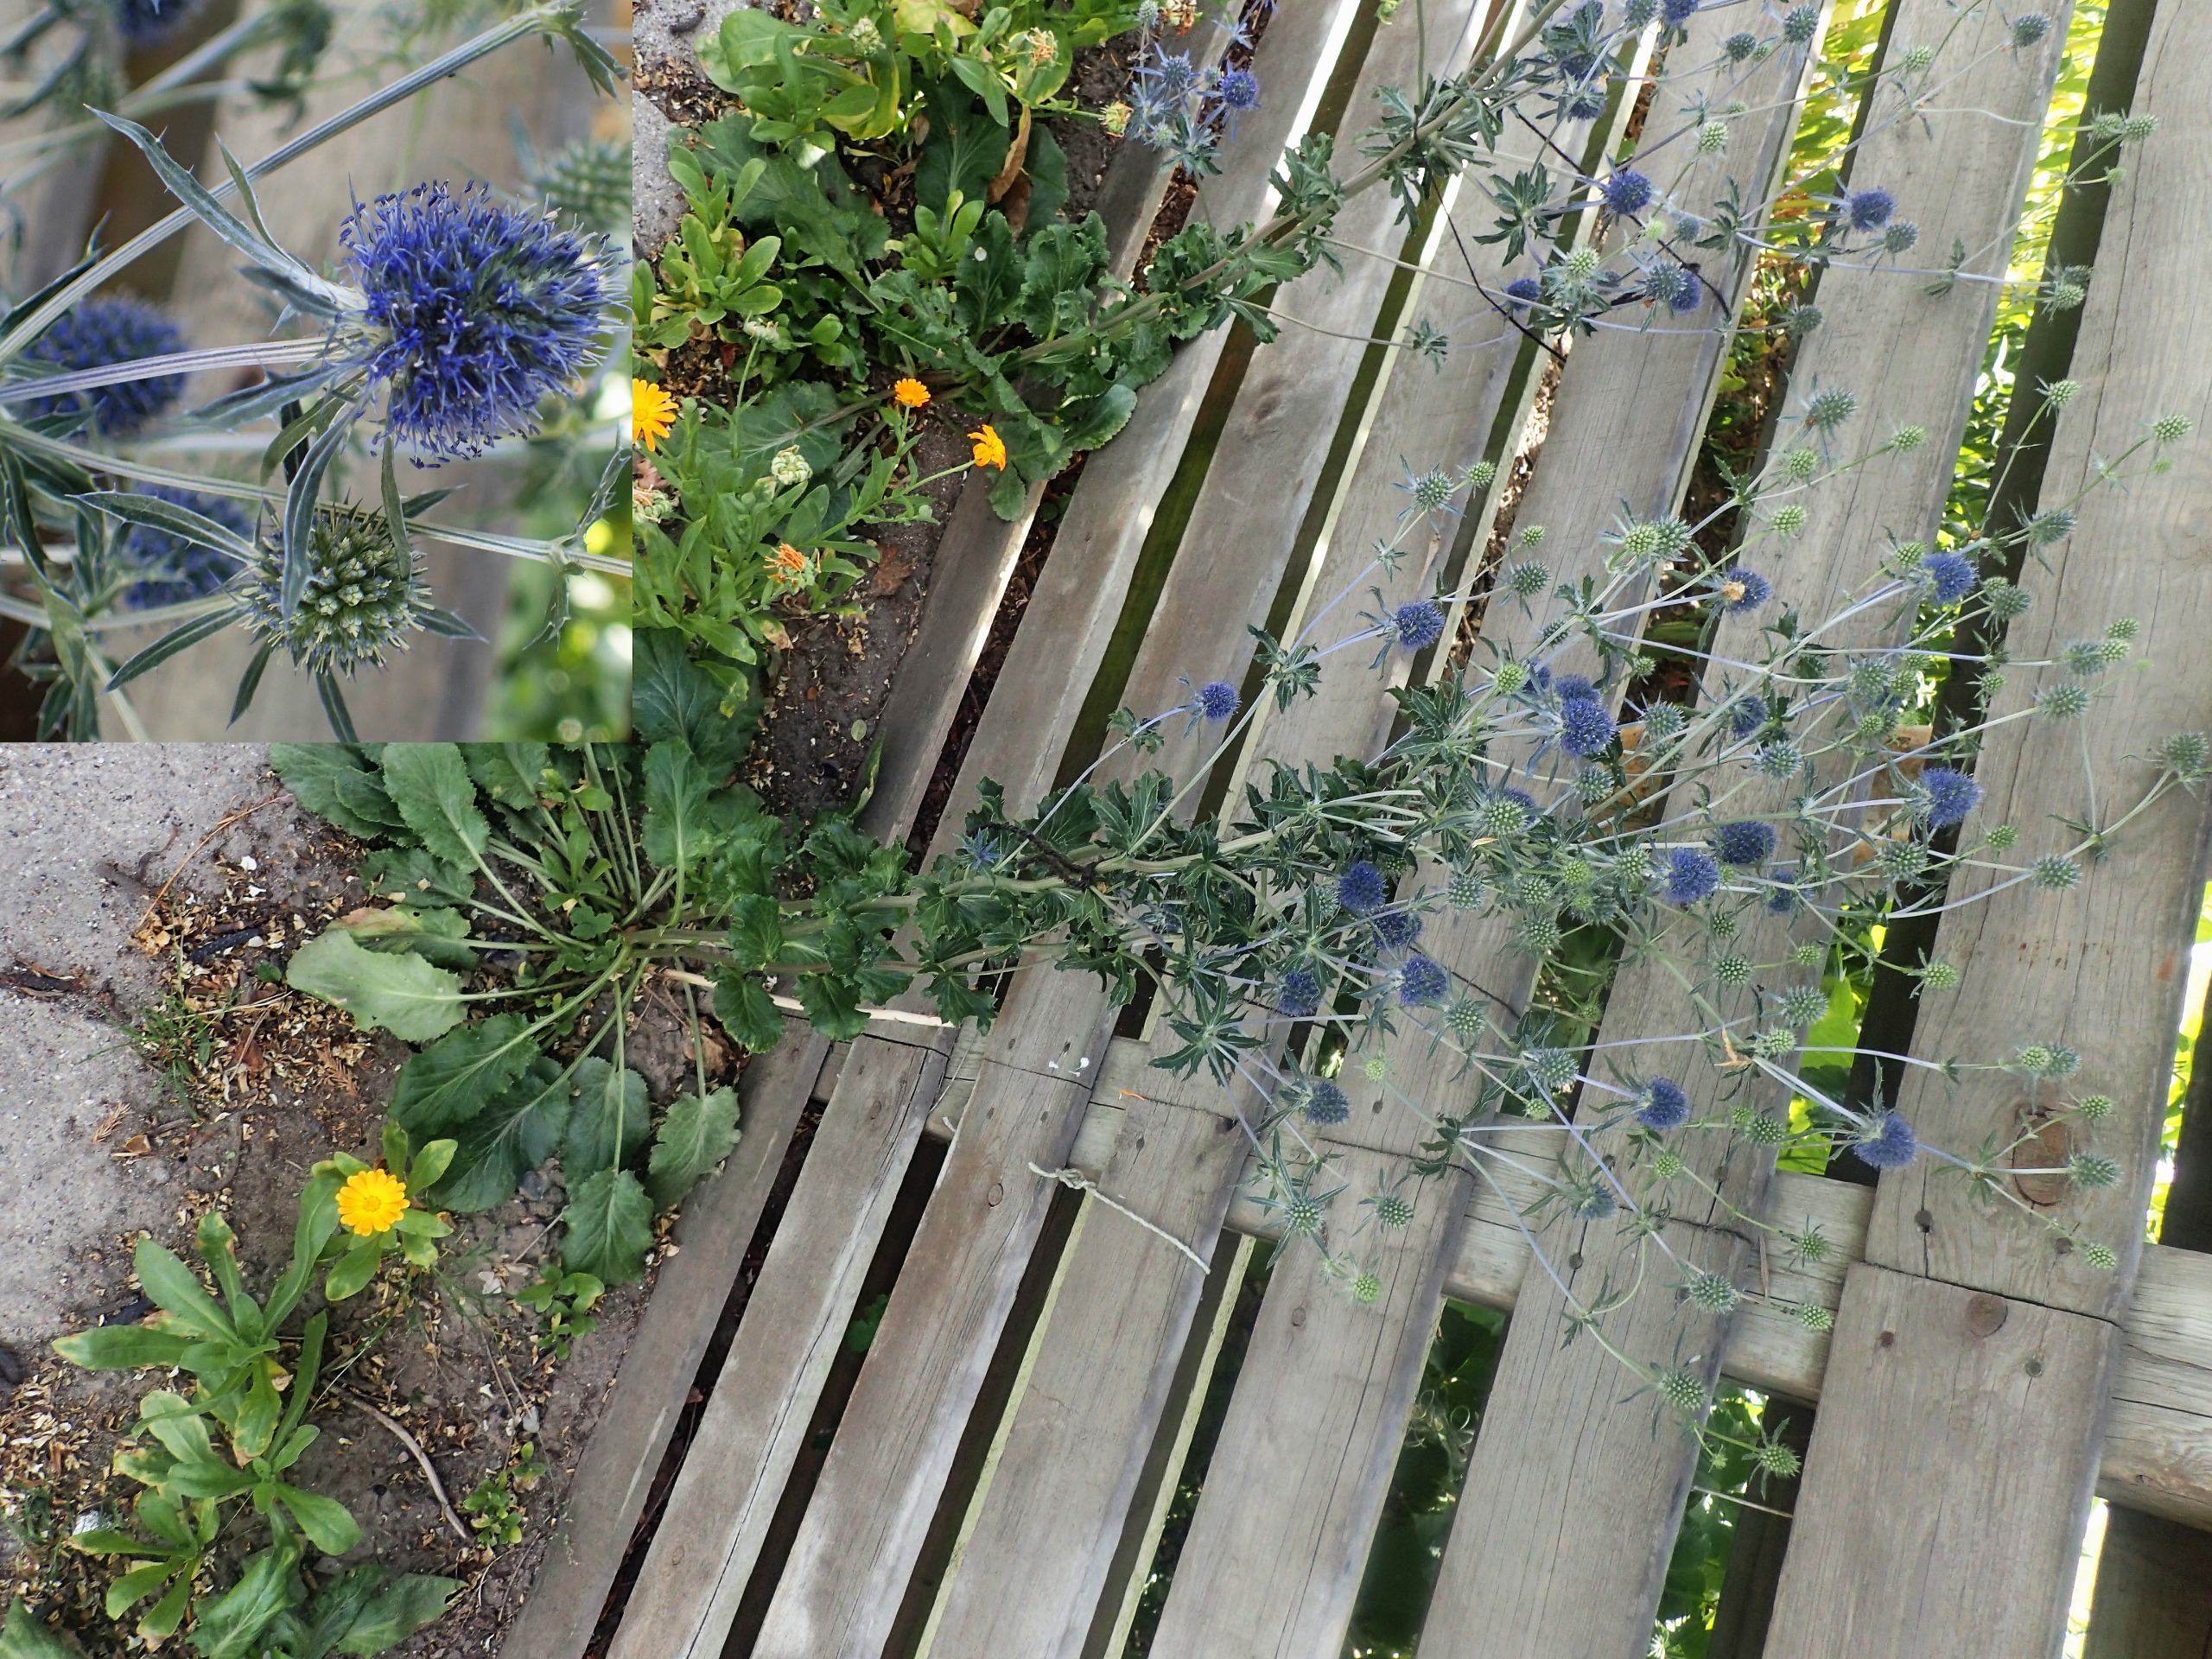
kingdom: Plantae
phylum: Tracheophyta
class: Magnoliopsida
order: Apiales
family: Apiaceae
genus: Eryngium
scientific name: Eryngium planum
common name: Russisk mandstro
